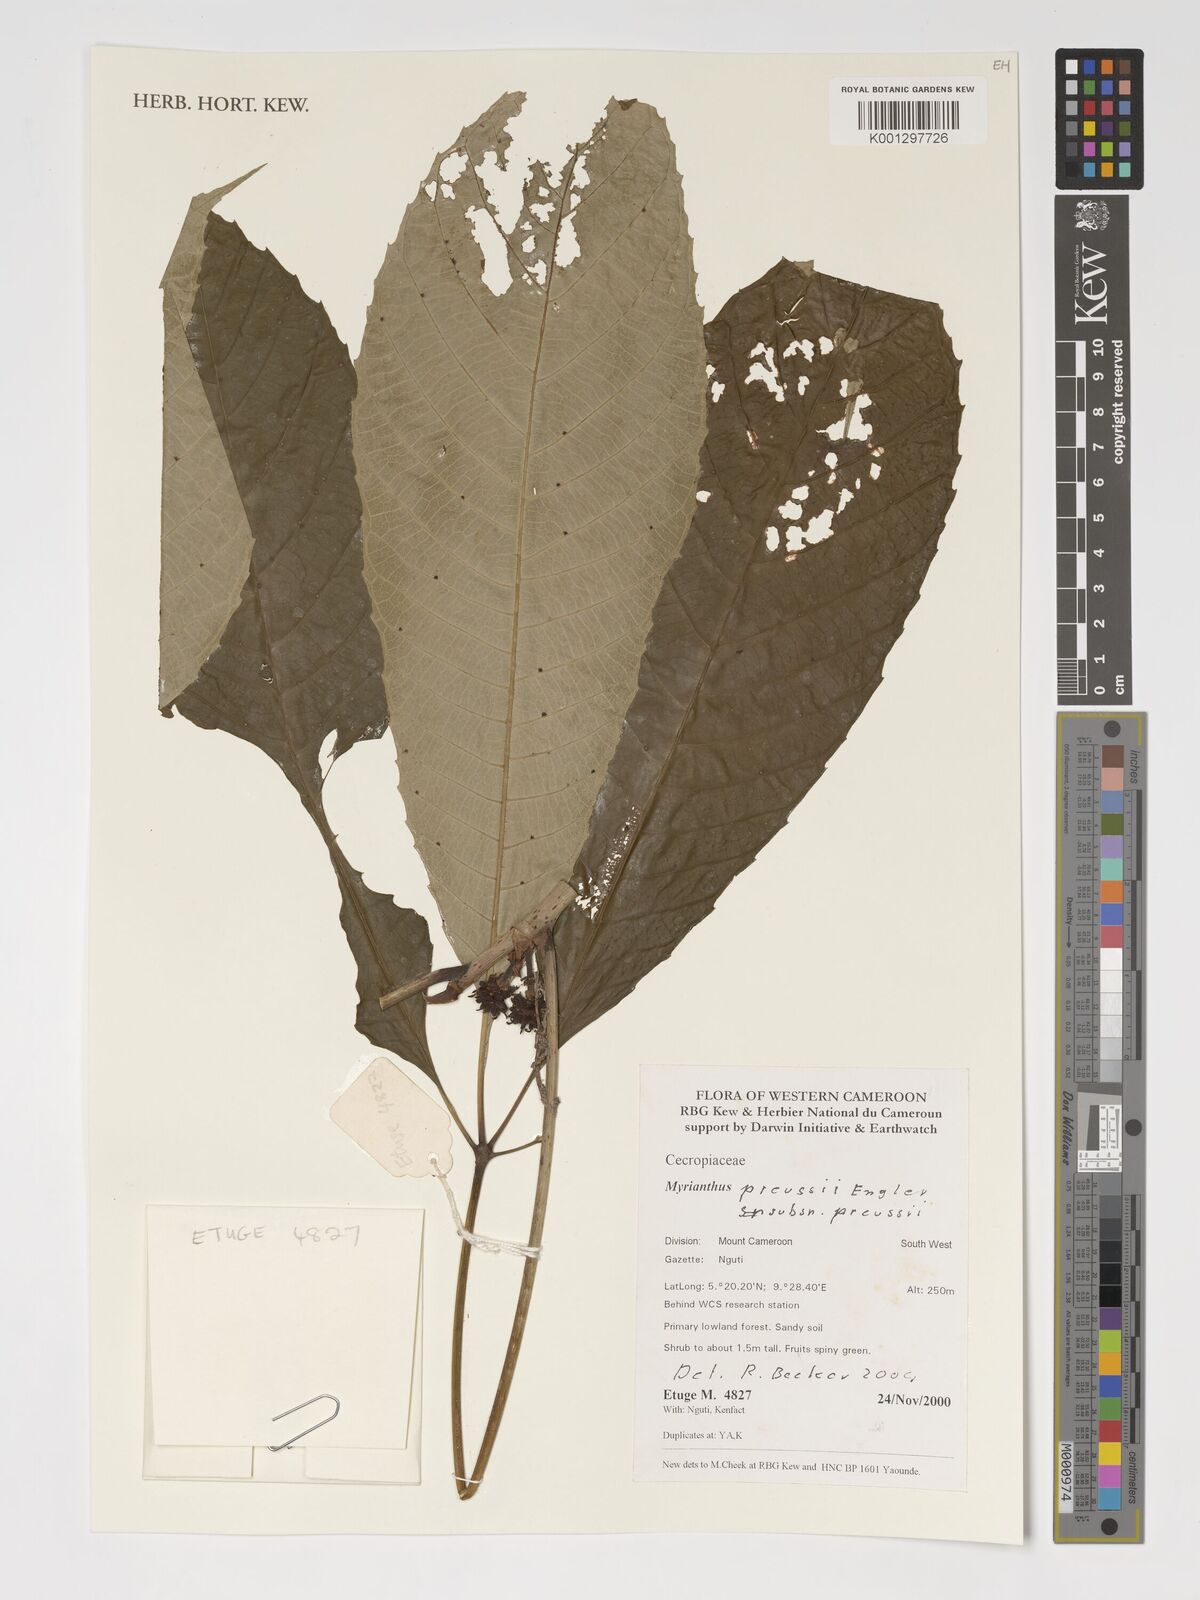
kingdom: Plantae
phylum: Tracheophyta
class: Magnoliopsida
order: Rosales
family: Urticaceae
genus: Myrianthus
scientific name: Myrianthus preussii
